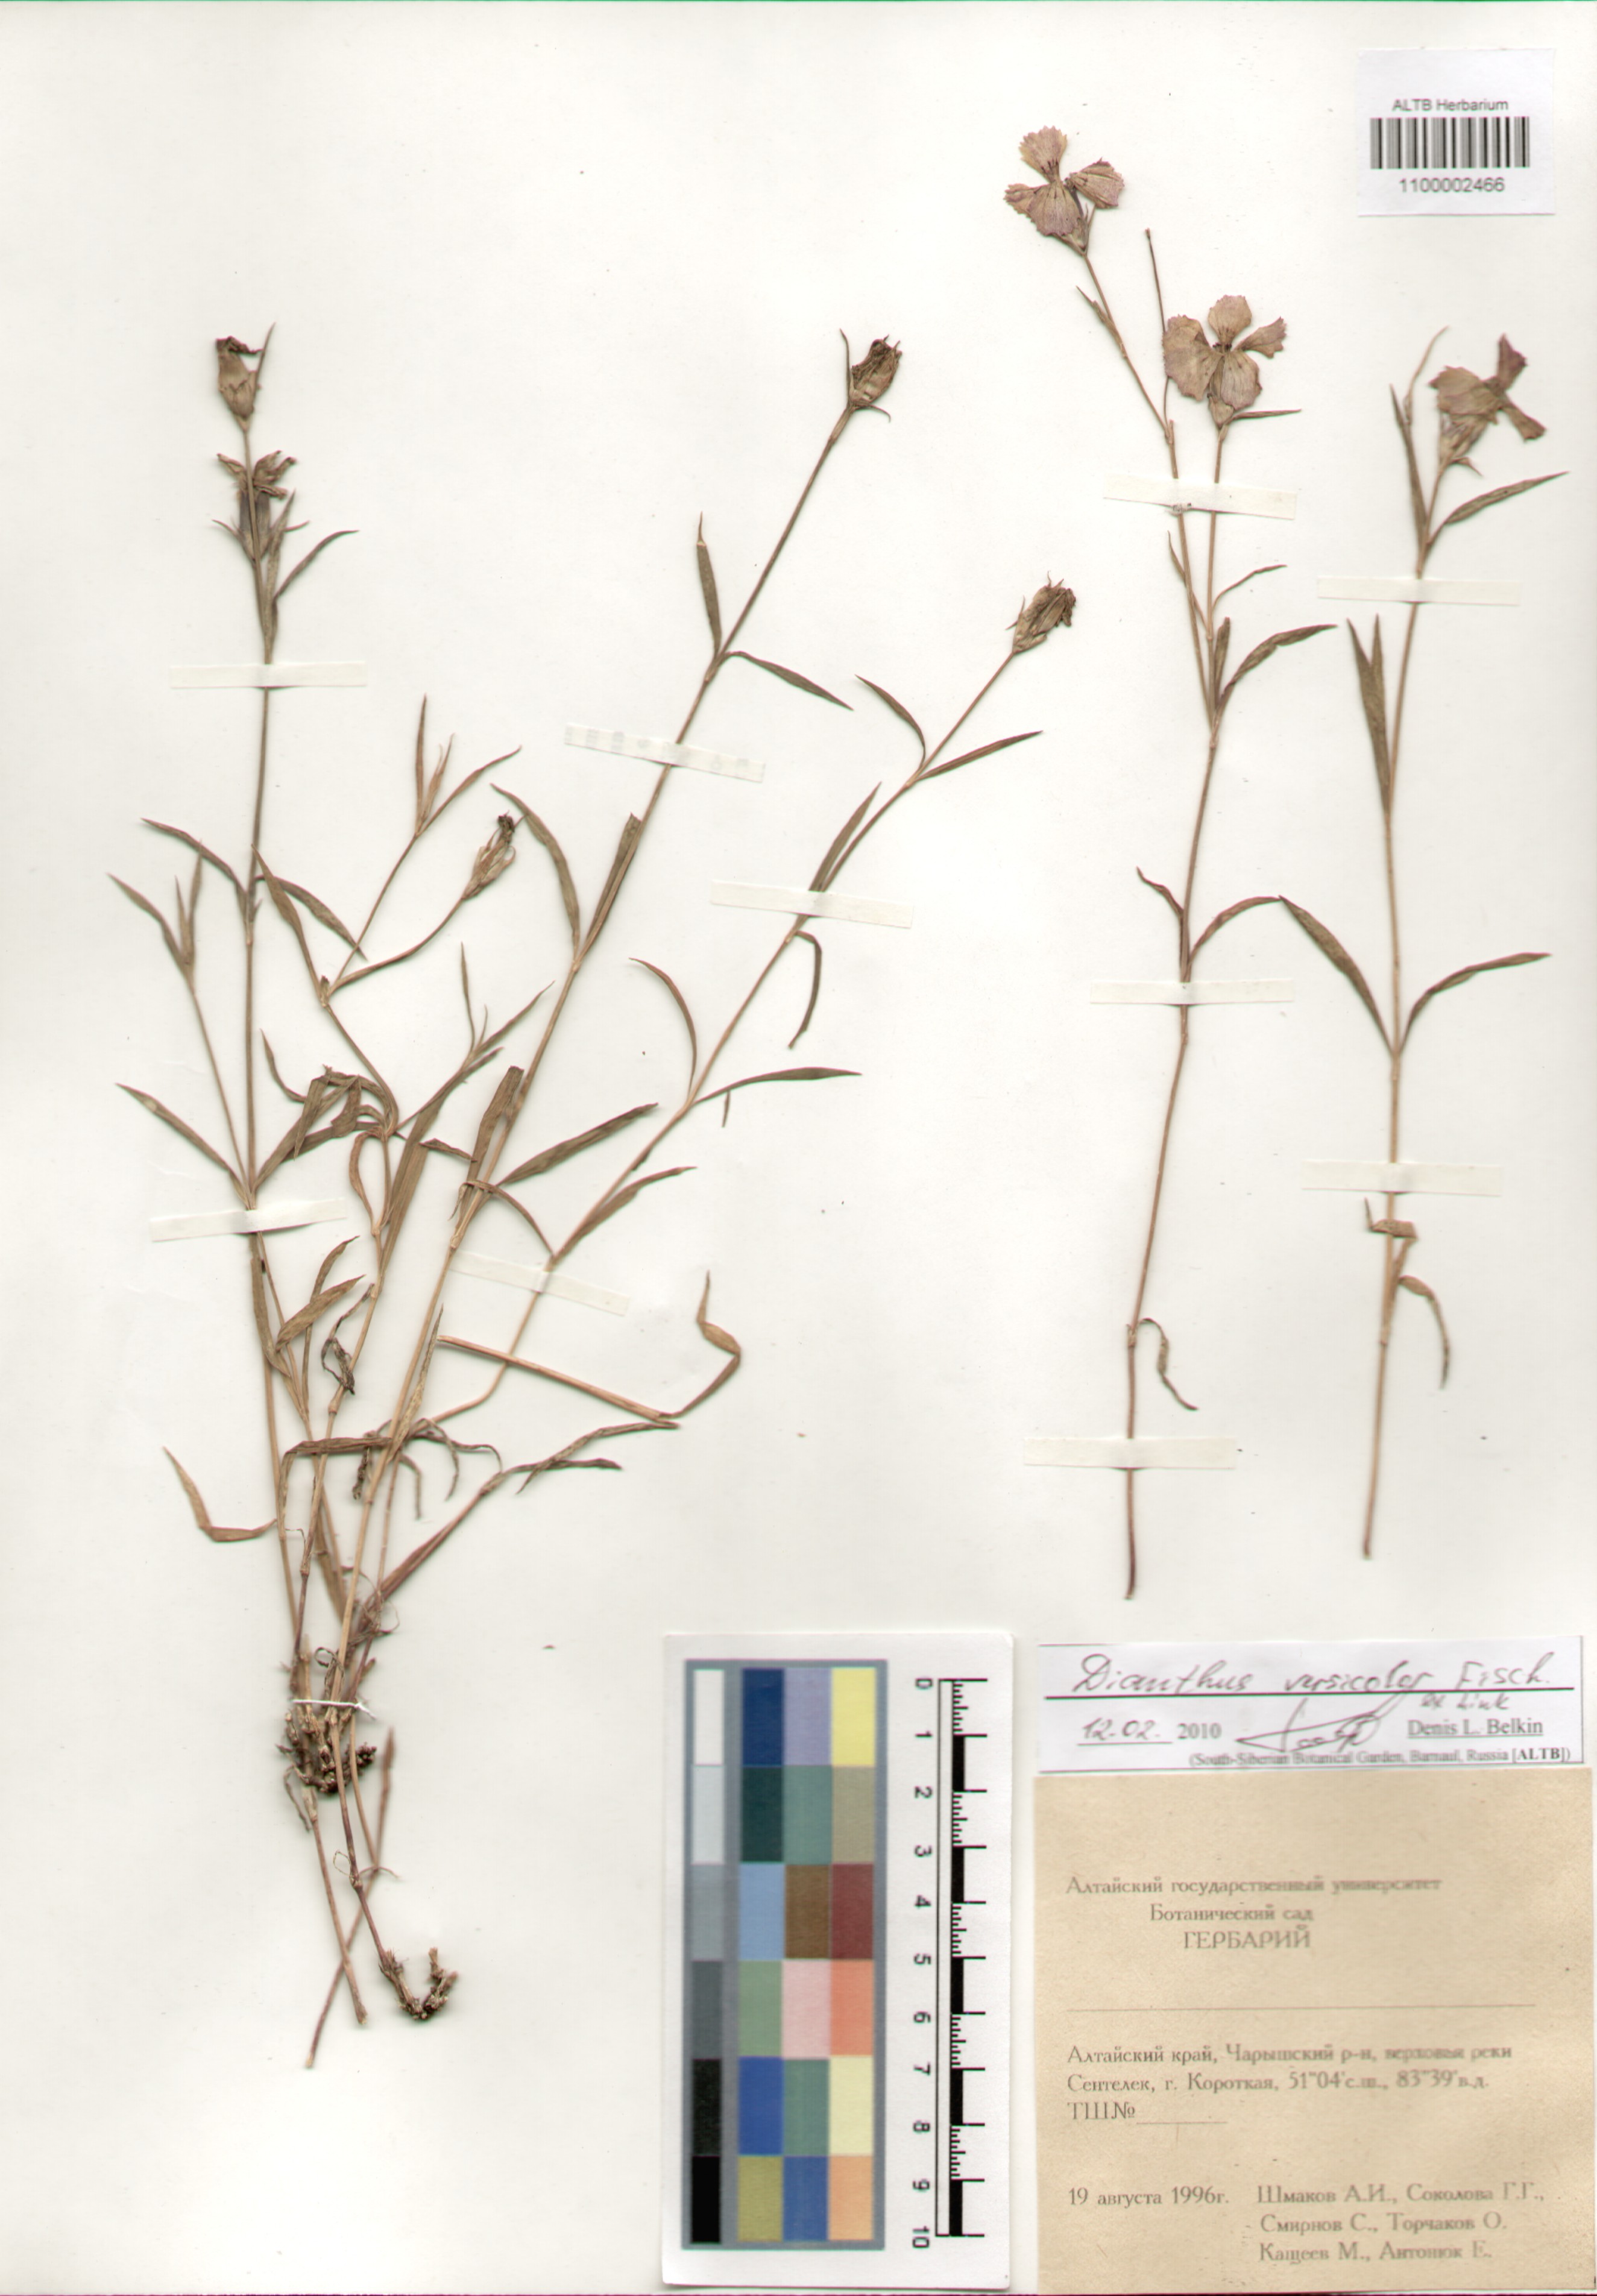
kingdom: Plantae
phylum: Tracheophyta
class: Magnoliopsida
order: Caryophyllales
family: Caryophyllaceae
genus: Dianthus
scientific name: Dianthus chinensis
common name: Rainbow pink
